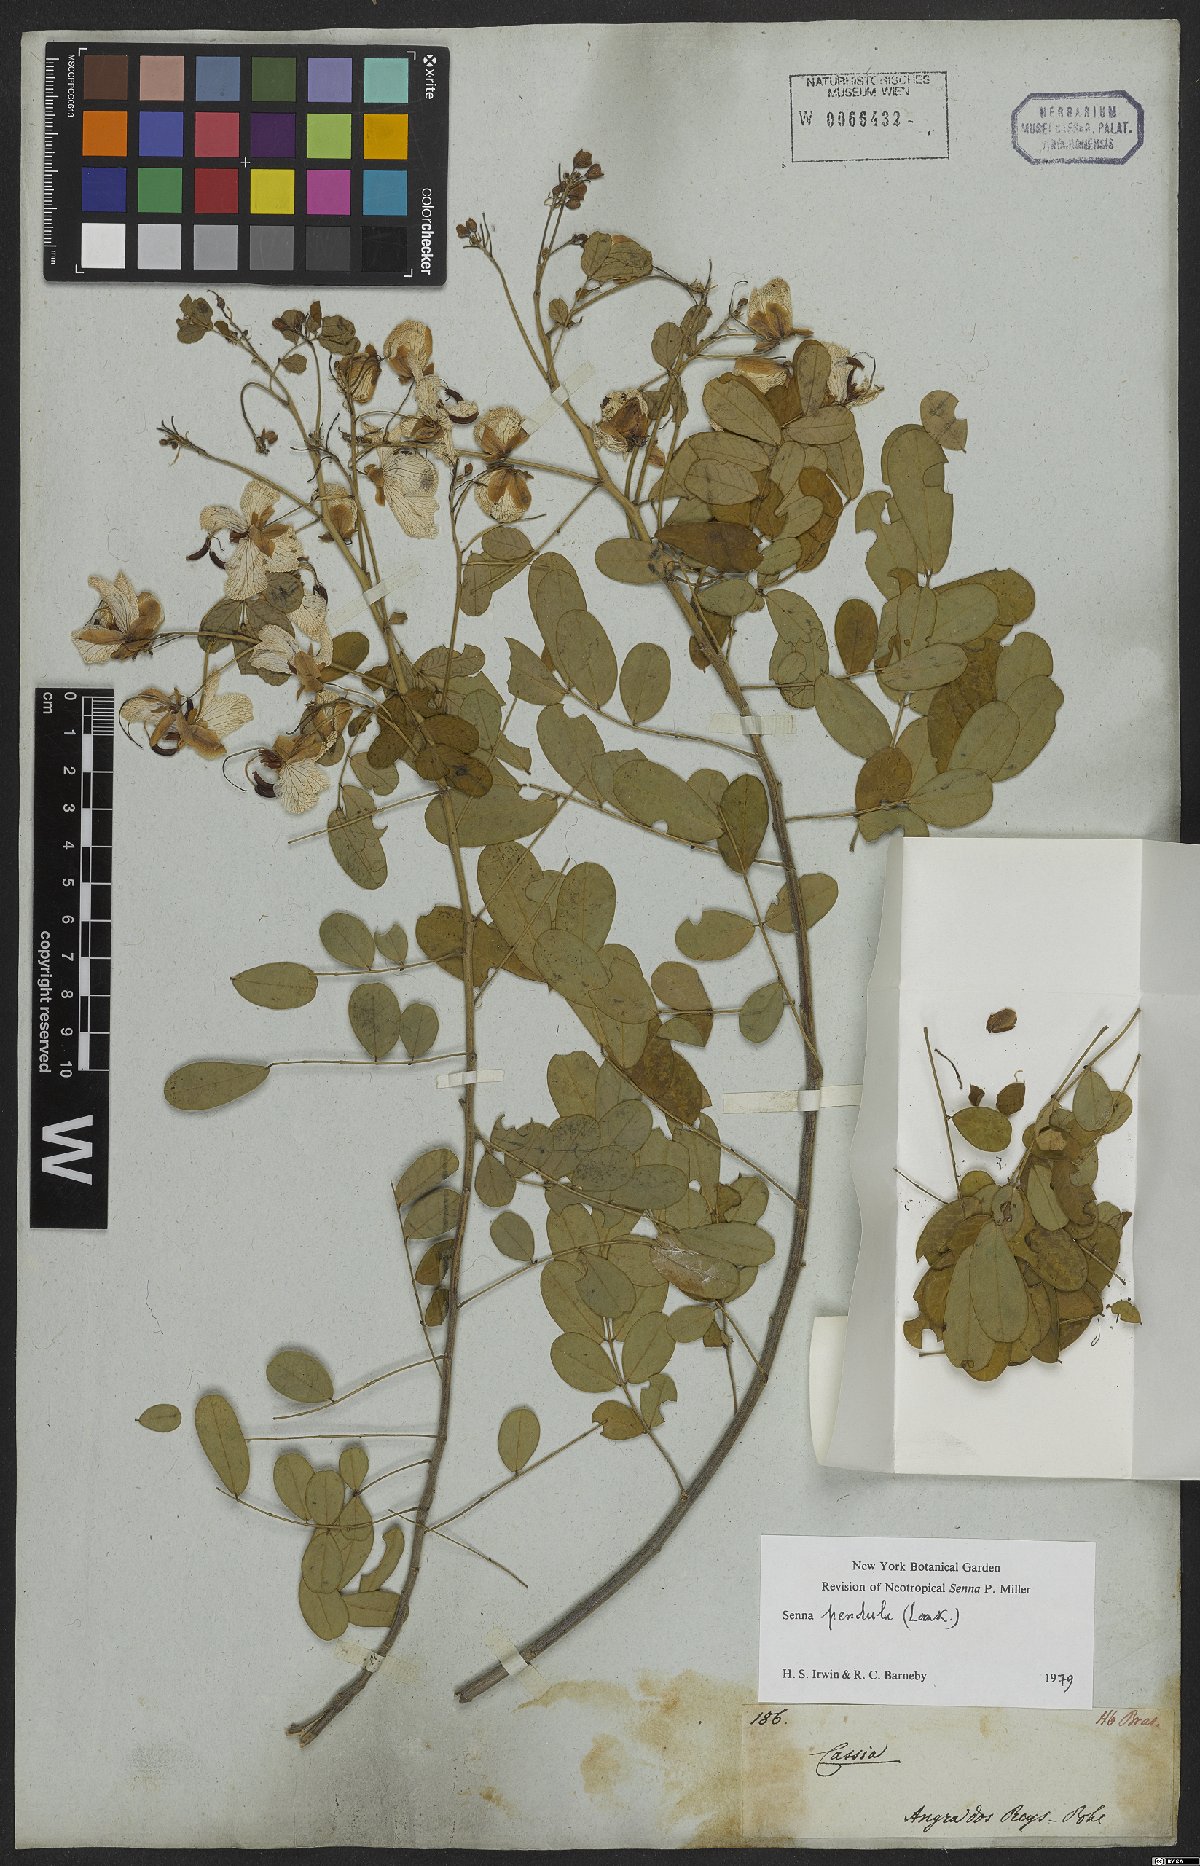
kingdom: Plantae
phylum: Tracheophyta
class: Magnoliopsida
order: Fabales
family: Fabaceae
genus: Senna
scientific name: Senna pendula
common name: Easter cassia
